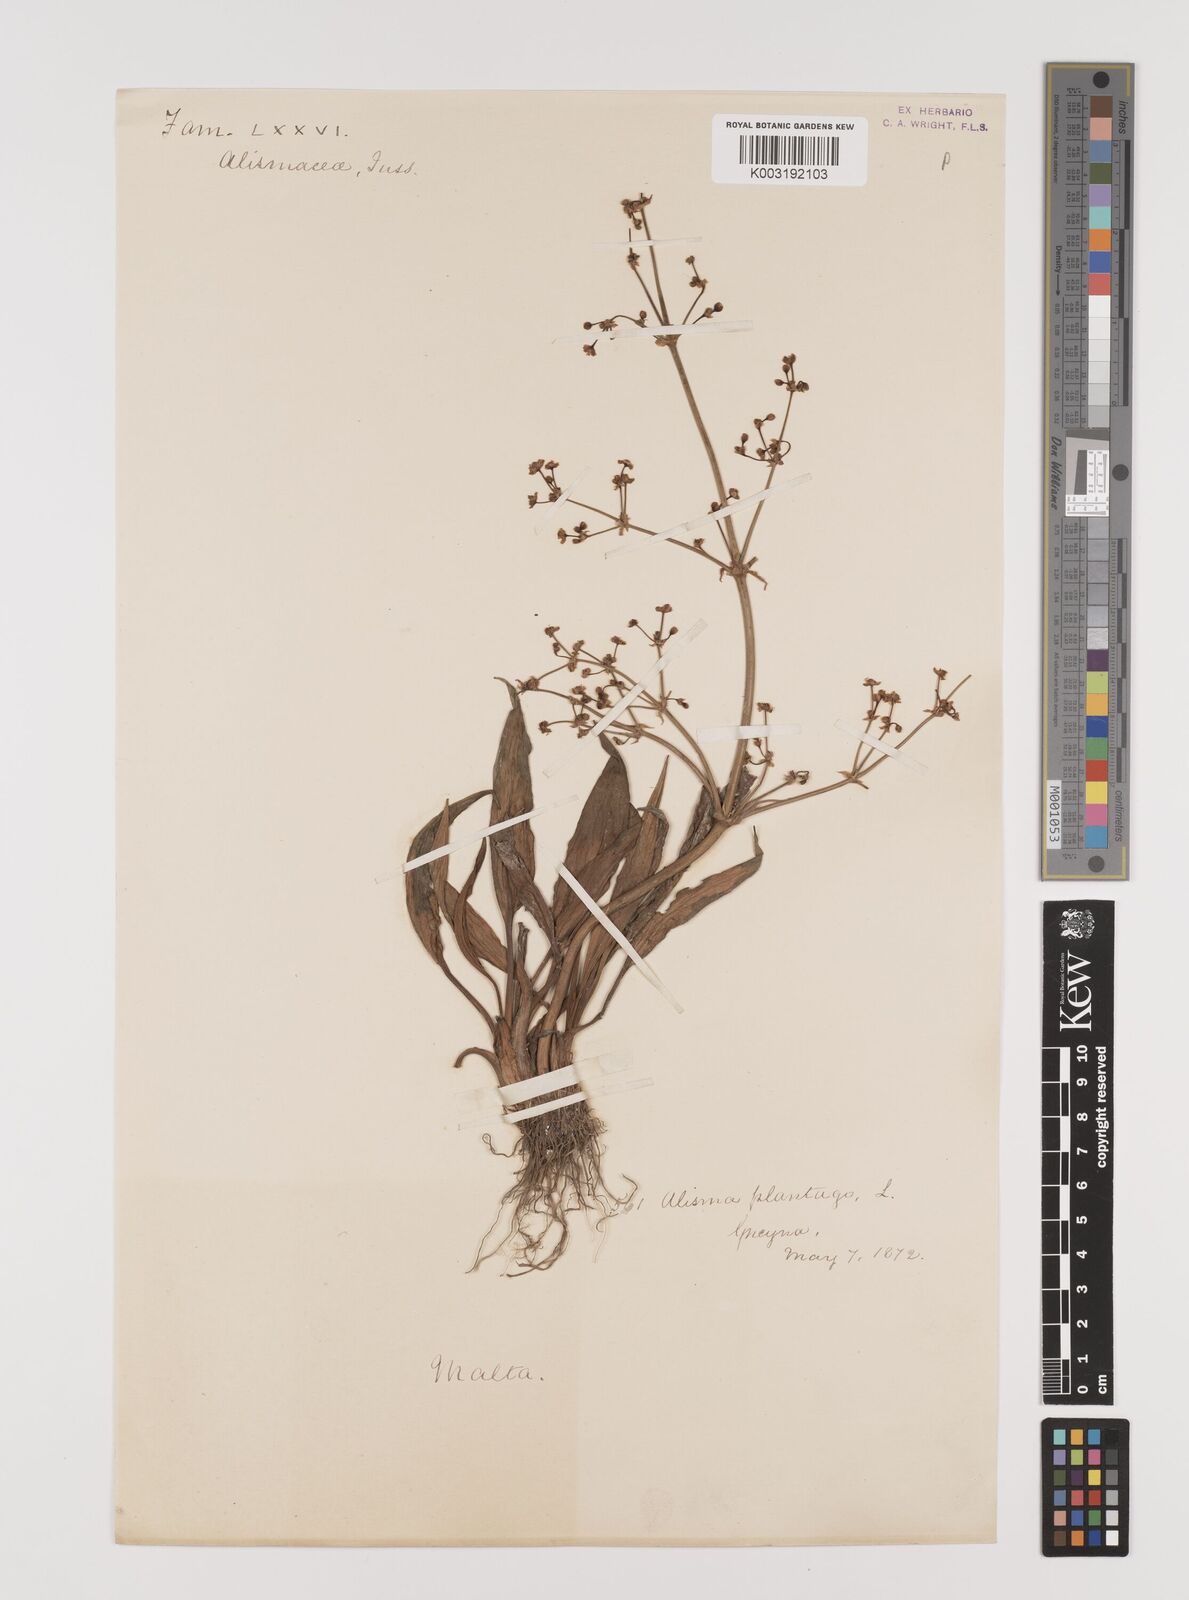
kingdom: Plantae
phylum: Tracheophyta
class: Liliopsida
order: Alismatales
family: Alismataceae
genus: Alisma
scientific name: Alisma plantago-aquatica
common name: Water-plantain
